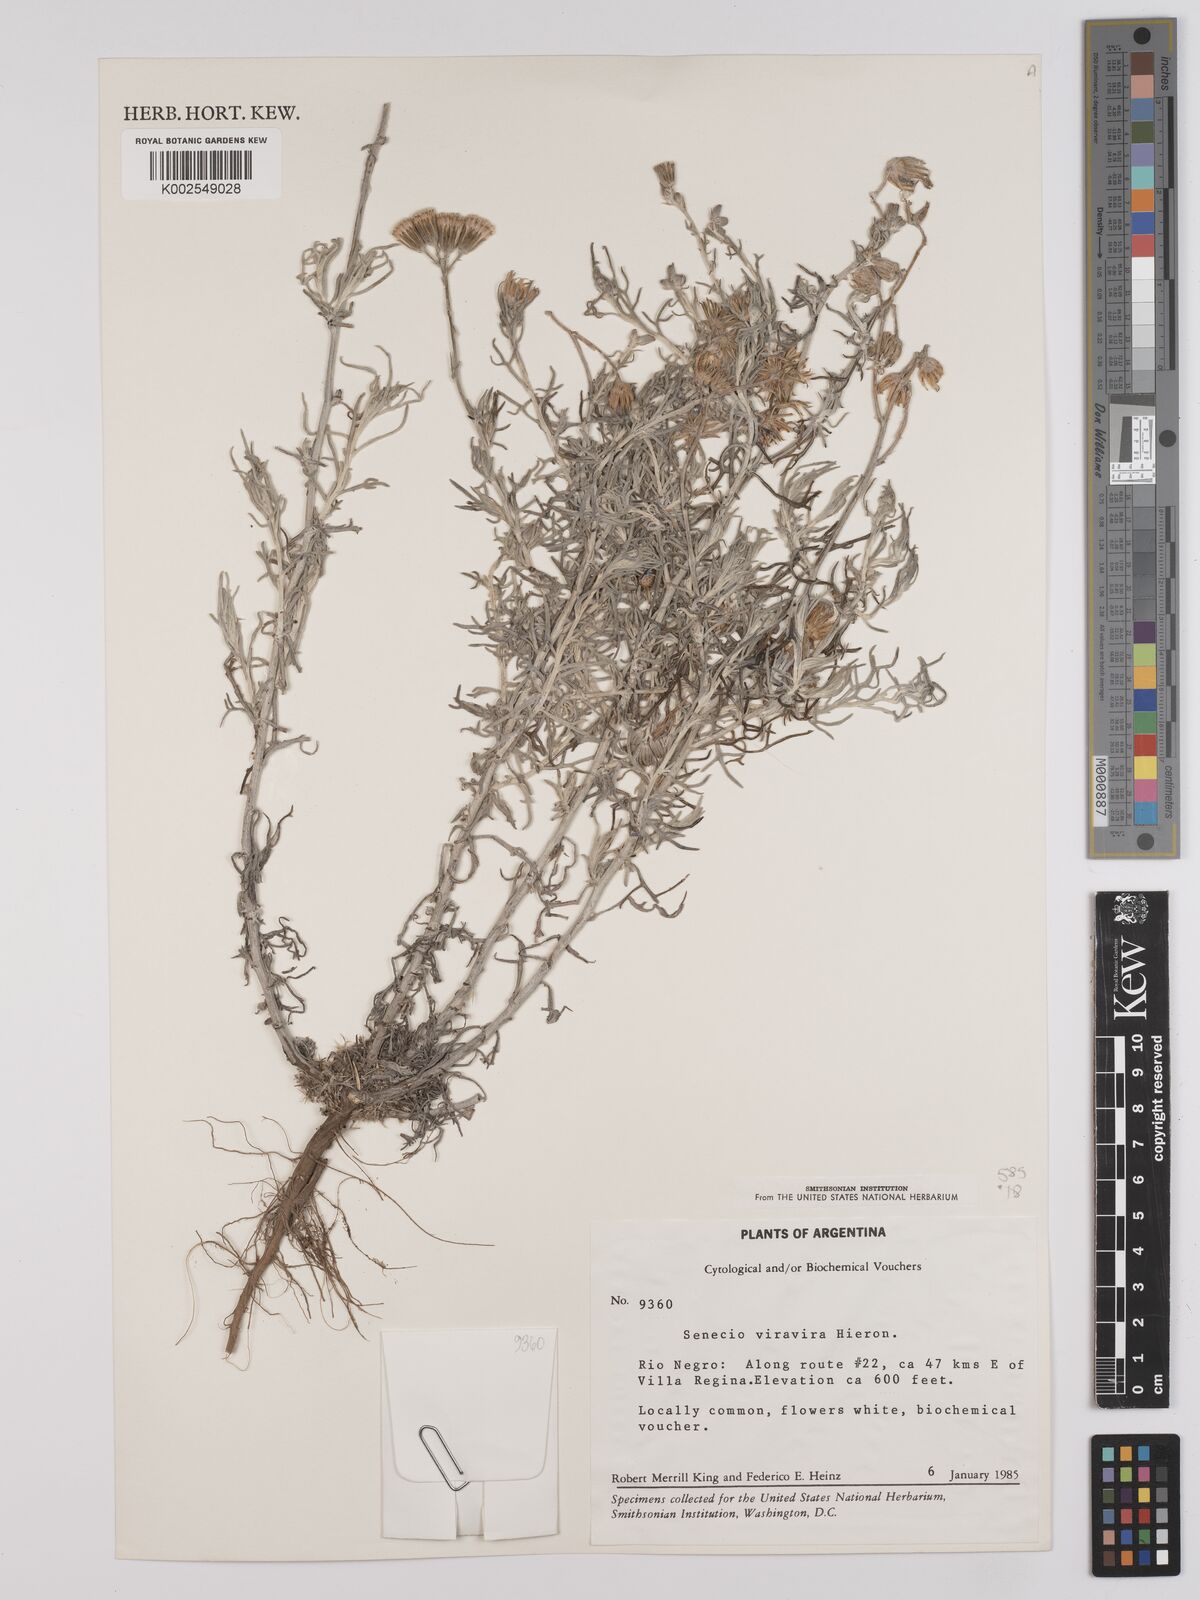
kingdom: Plantae
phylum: Tracheophyta
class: Magnoliopsida
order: Asterales
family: Asteraceae
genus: Senecio
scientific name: Senecio leucostachys
